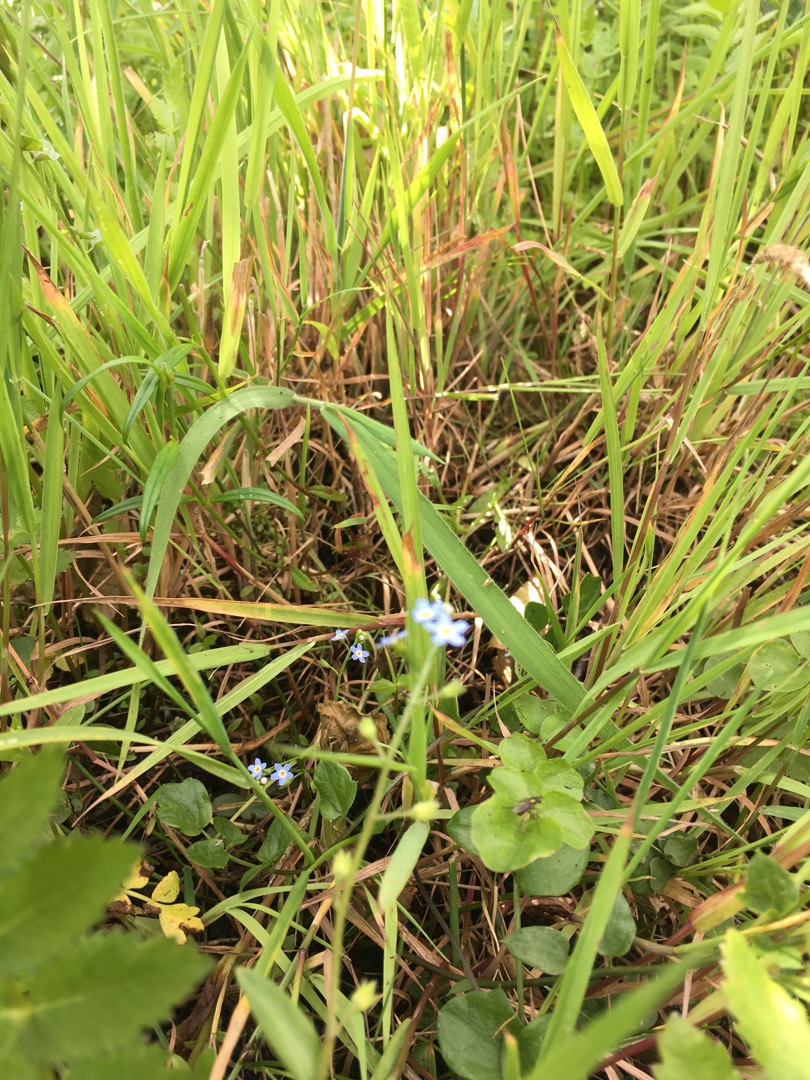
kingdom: Plantae
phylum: Tracheophyta
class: Magnoliopsida
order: Boraginales
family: Boraginaceae
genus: Myosotis
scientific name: Myosotis scorpioides
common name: Eng-forglemmigej
